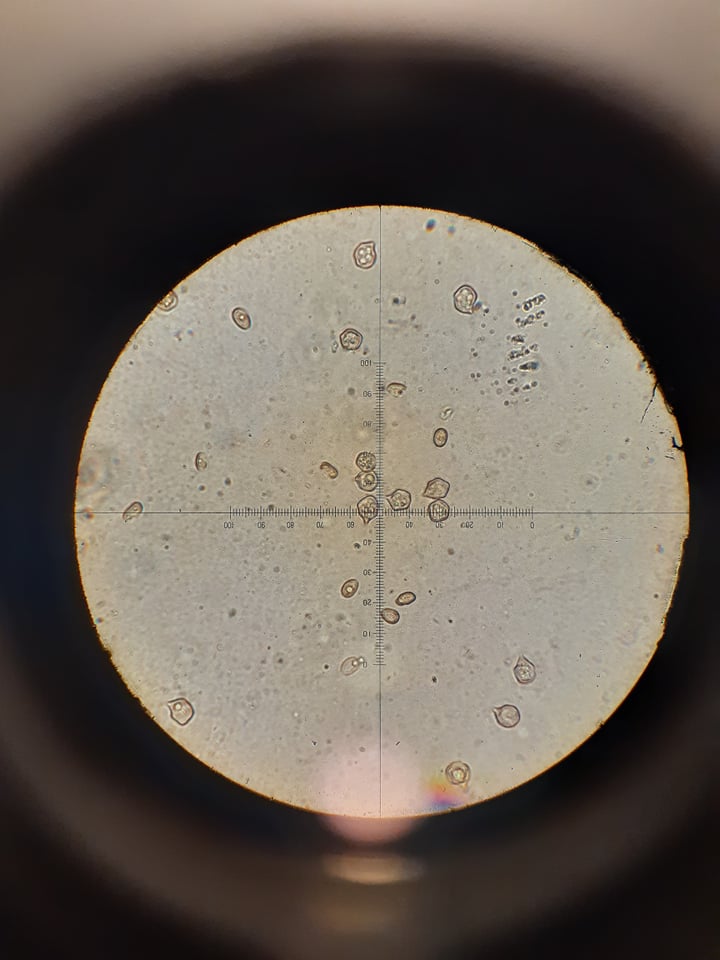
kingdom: Fungi
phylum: Basidiomycota
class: Agaricomycetes
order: Agaricales
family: Entolomataceae
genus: Entoloma
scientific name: Entoloma sericeum
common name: silkeglinsende rødblad
